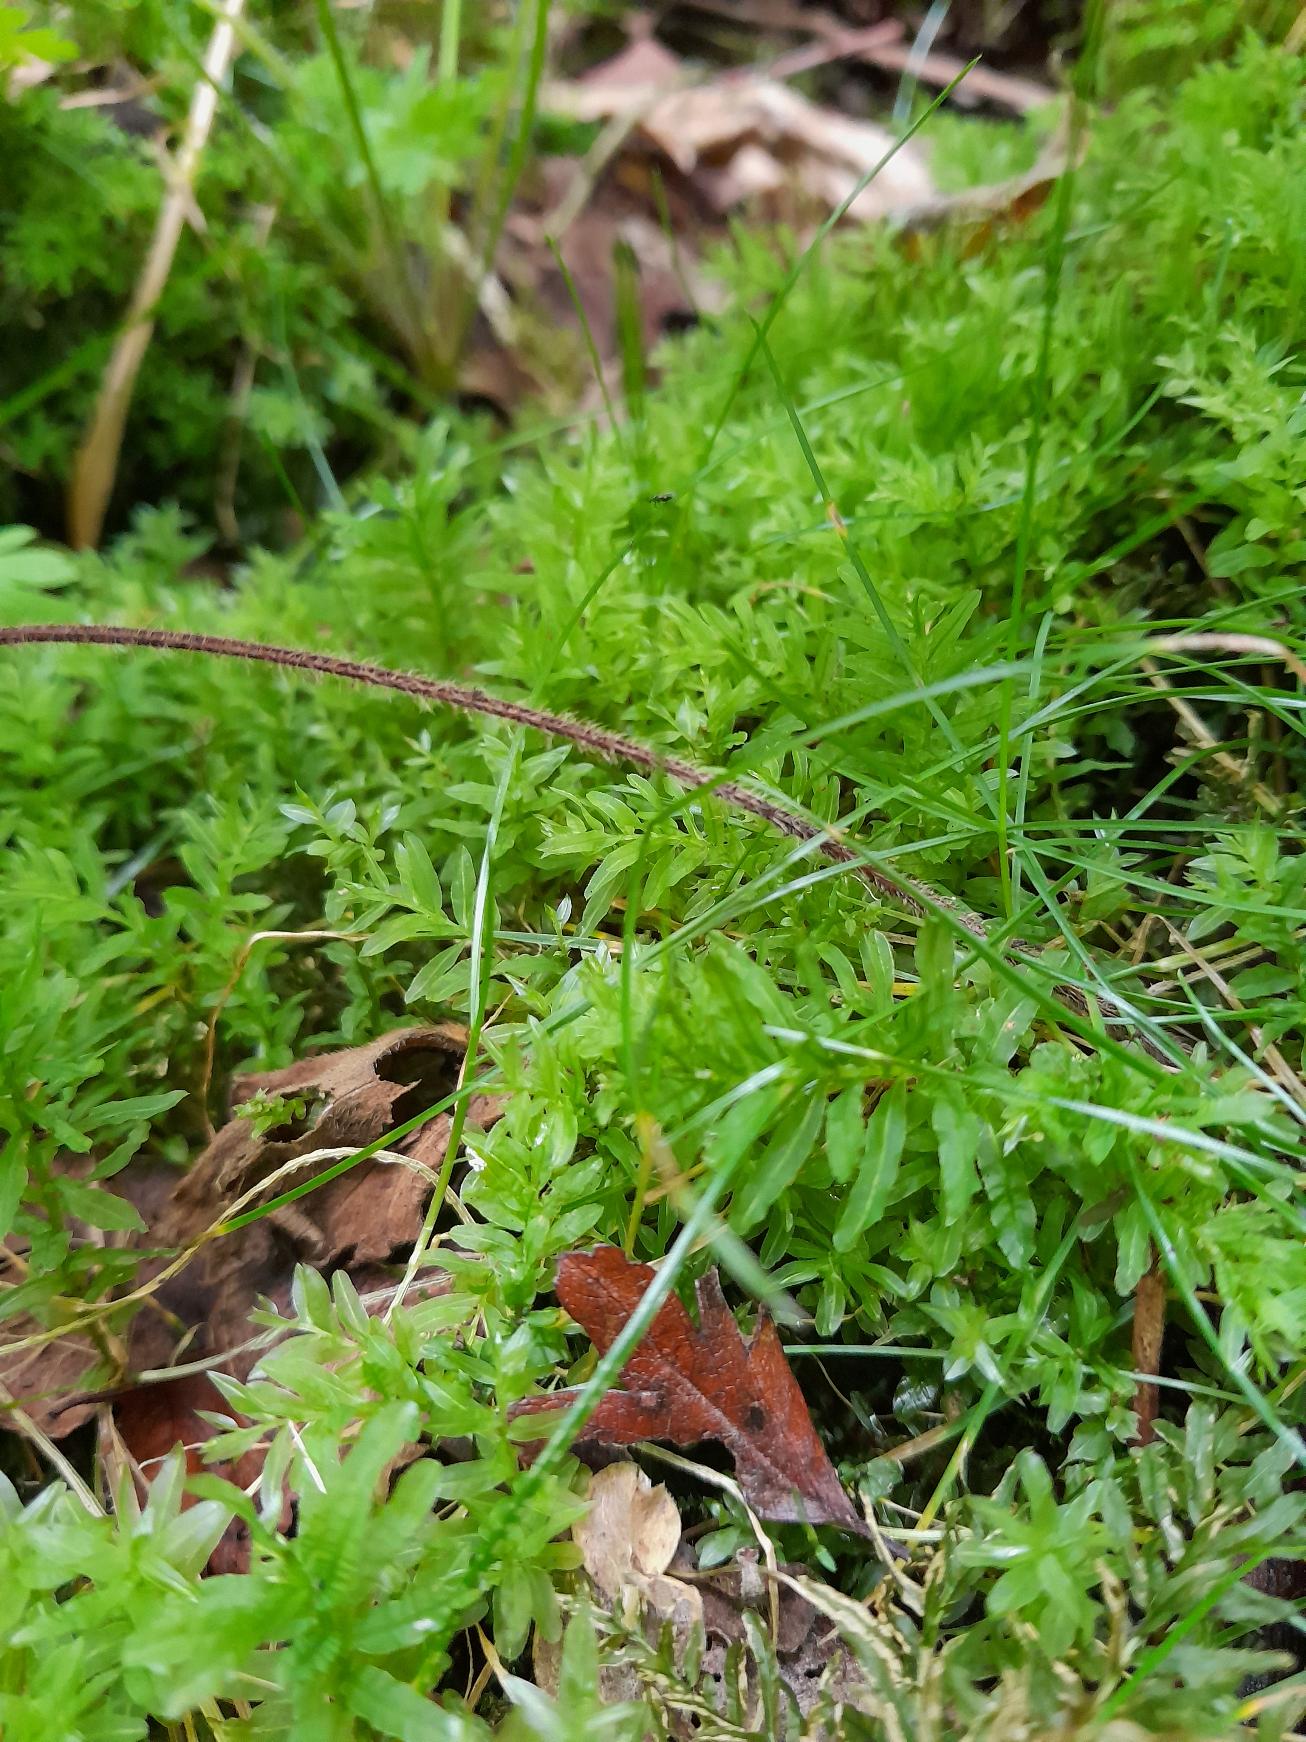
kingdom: Plantae
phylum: Bryophyta
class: Bryopsida
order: Bryales
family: Mniaceae
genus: Plagiomnium
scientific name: Plagiomnium undulatum
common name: Bølget krybstjerne
